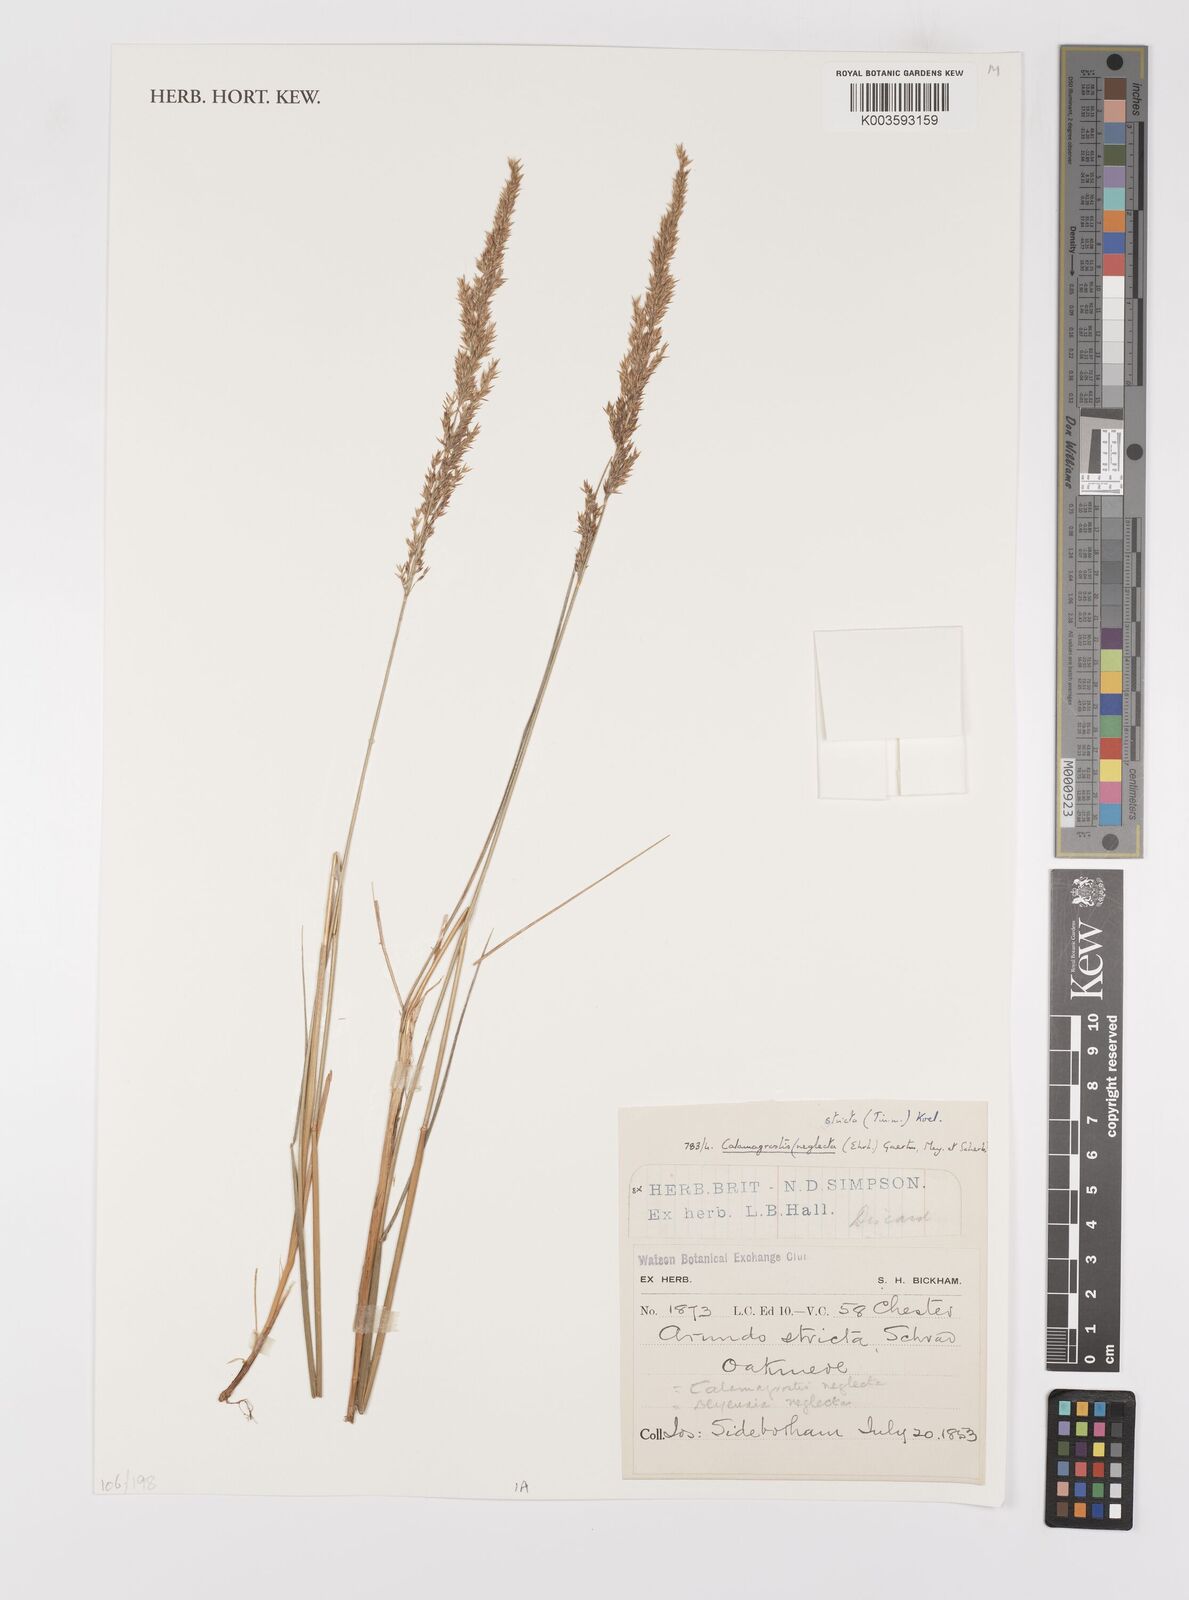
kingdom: Plantae
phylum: Tracheophyta
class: Liliopsida
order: Poales
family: Poaceae
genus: Calamagrostis
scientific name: Calamagrostis
